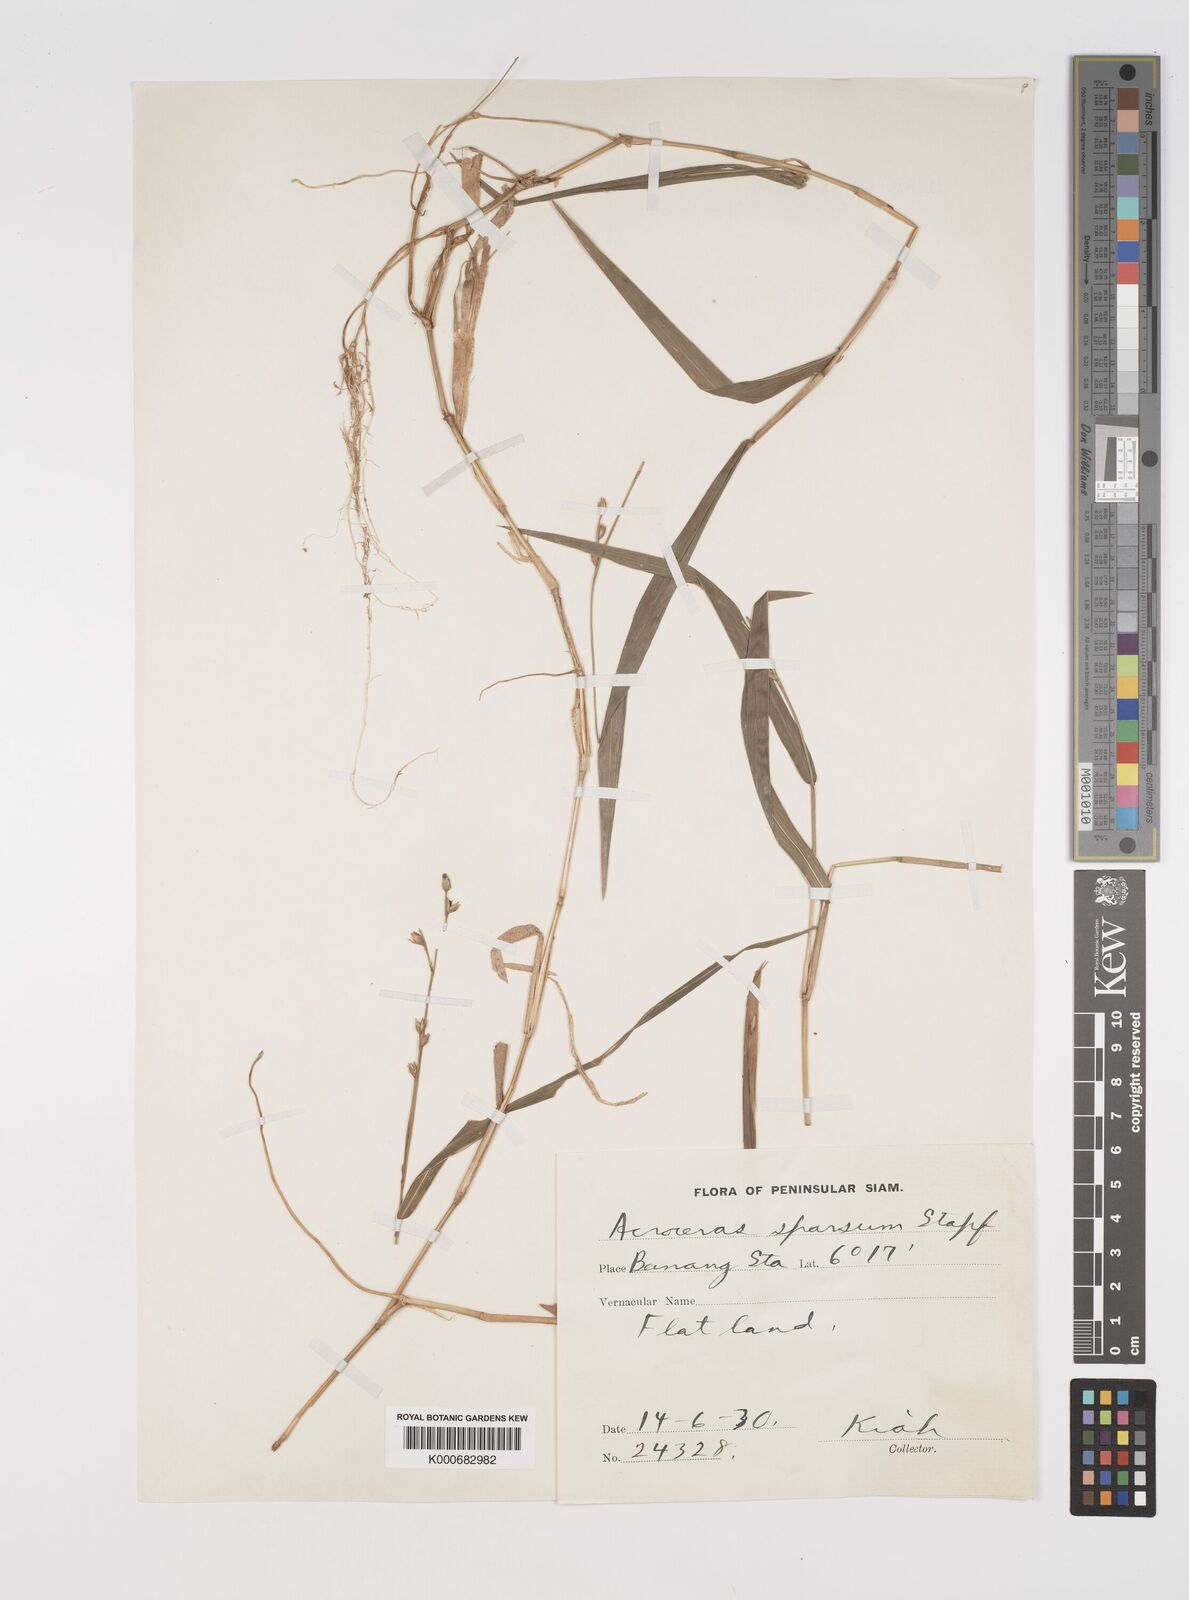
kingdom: Plantae
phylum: Tracheophyta
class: Liliopsida
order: Poales
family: Poaceae
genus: Acroceras
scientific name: Acroceras
